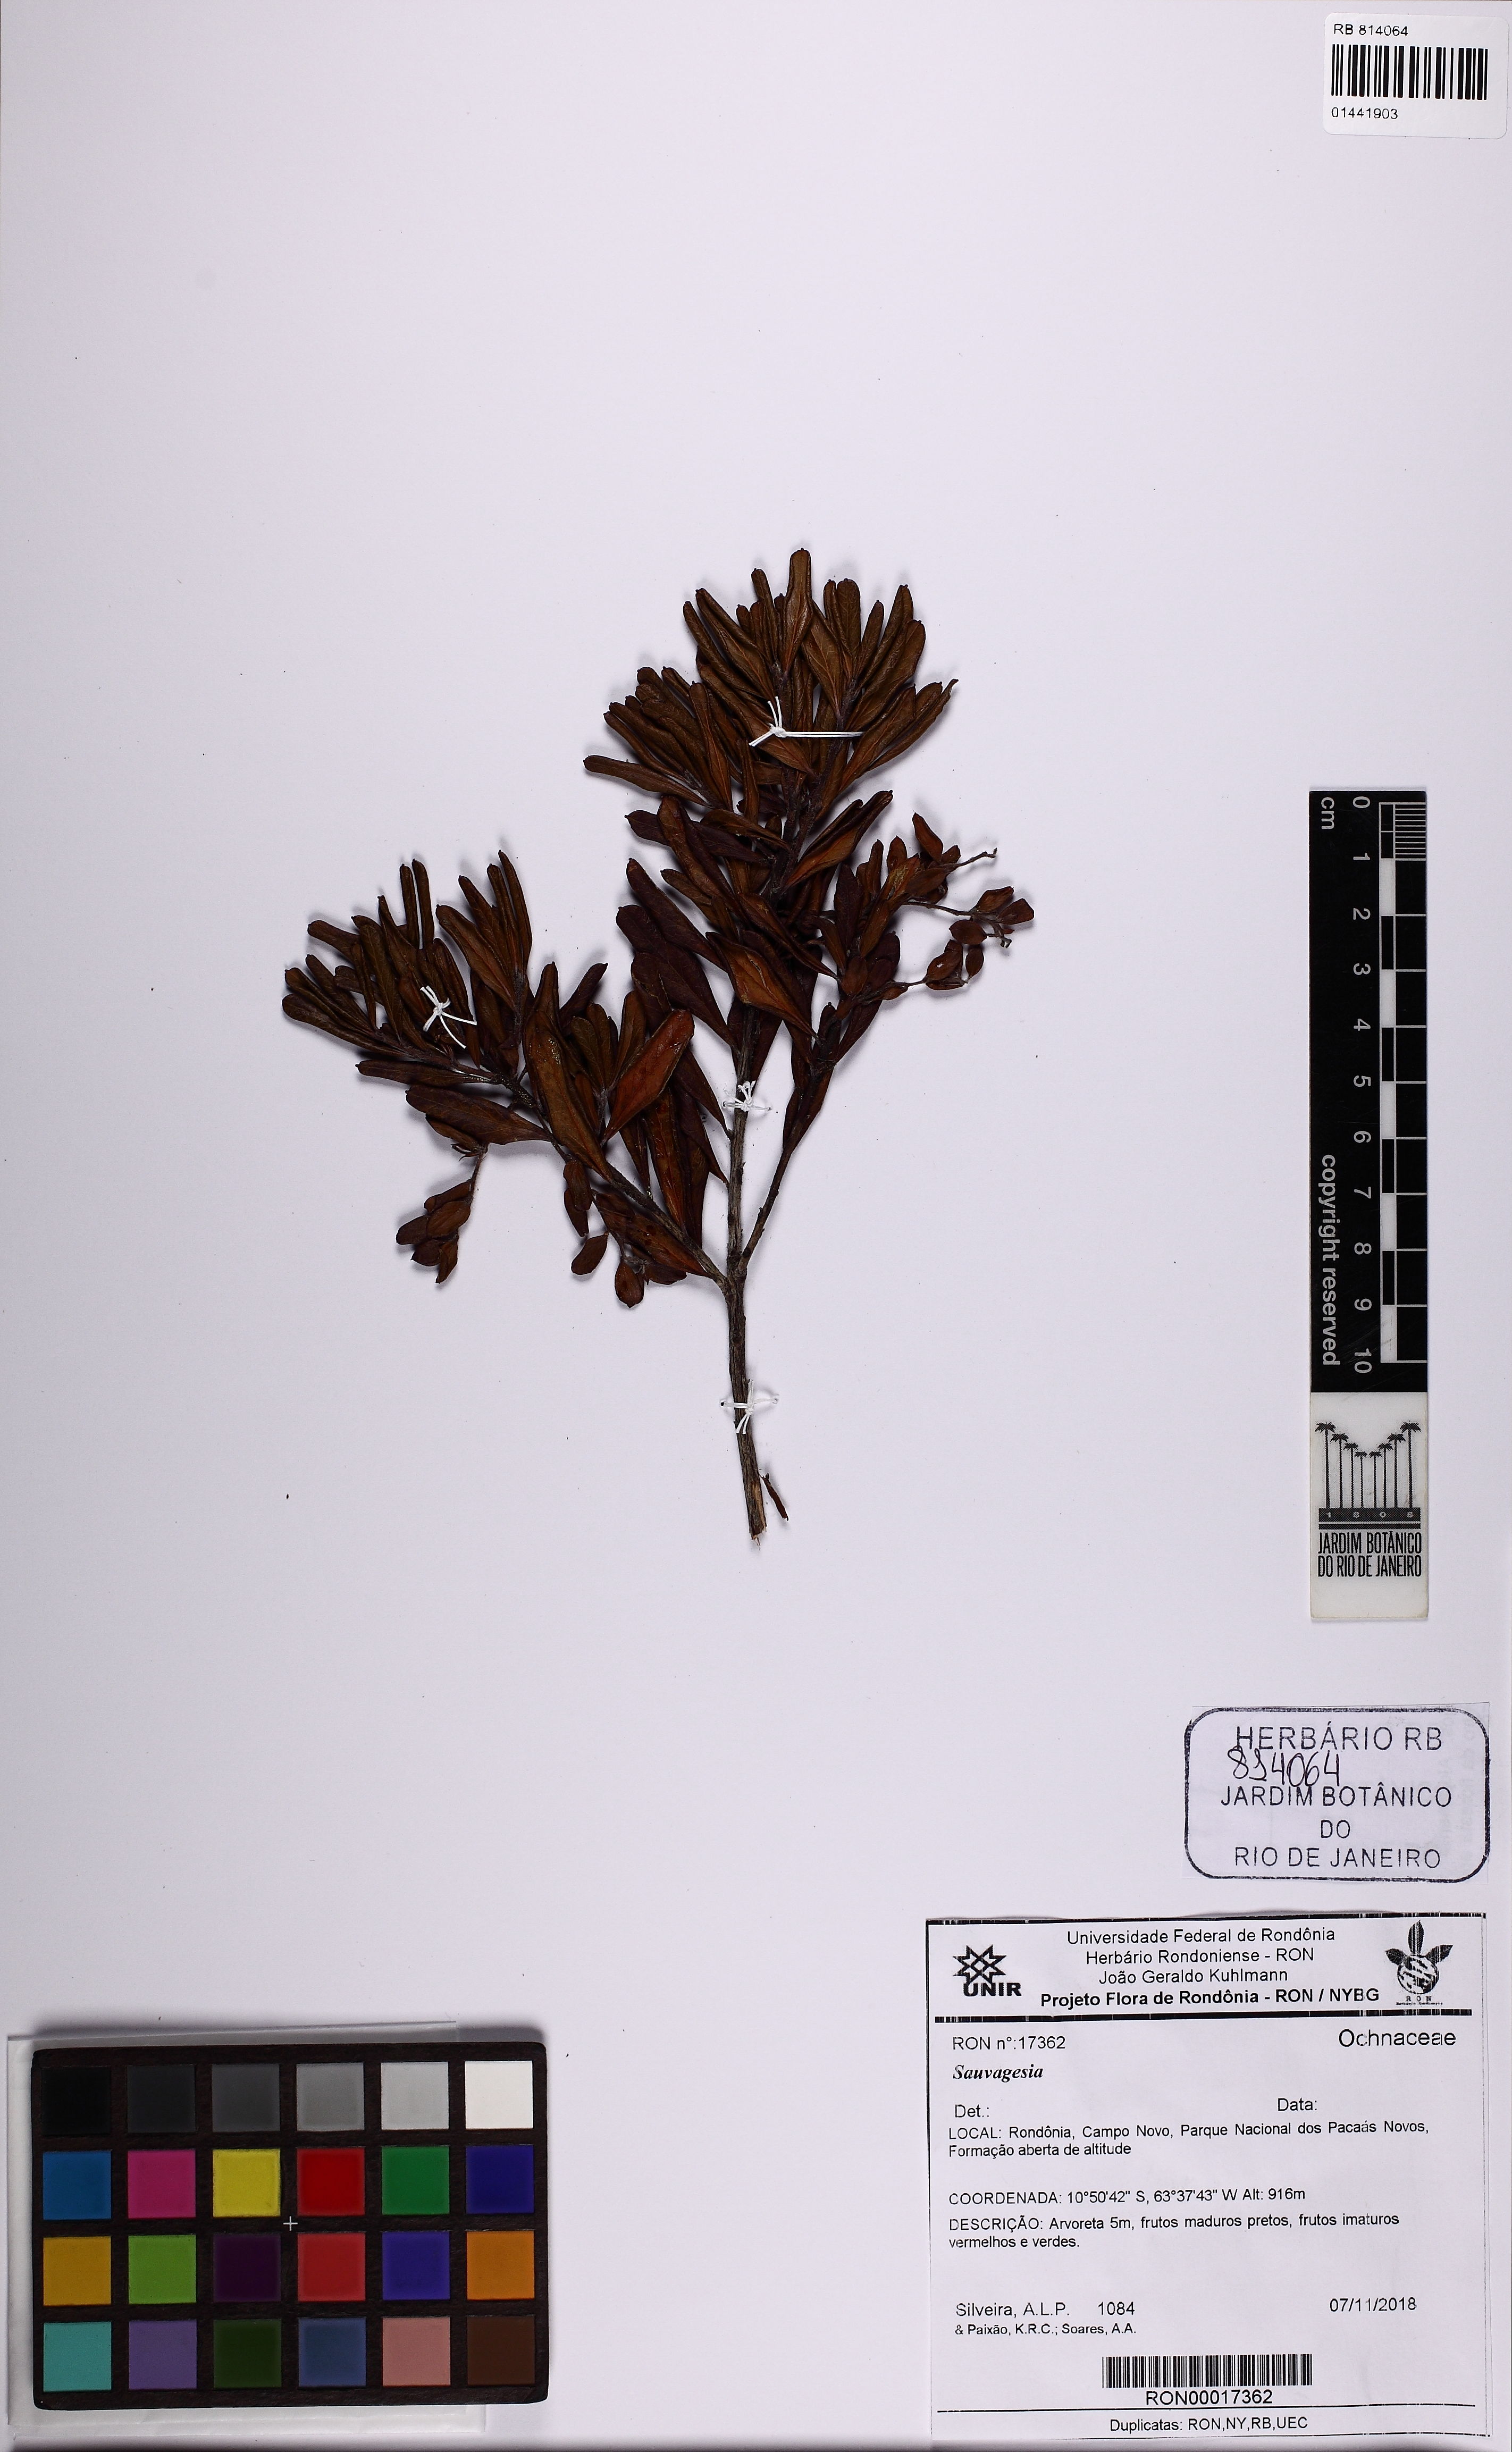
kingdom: Plantae
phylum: Tracheophyta
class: Magnoliopsida
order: Malpighiales
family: Ochnaceae
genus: Sauvagesia
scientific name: Sauvagesia
